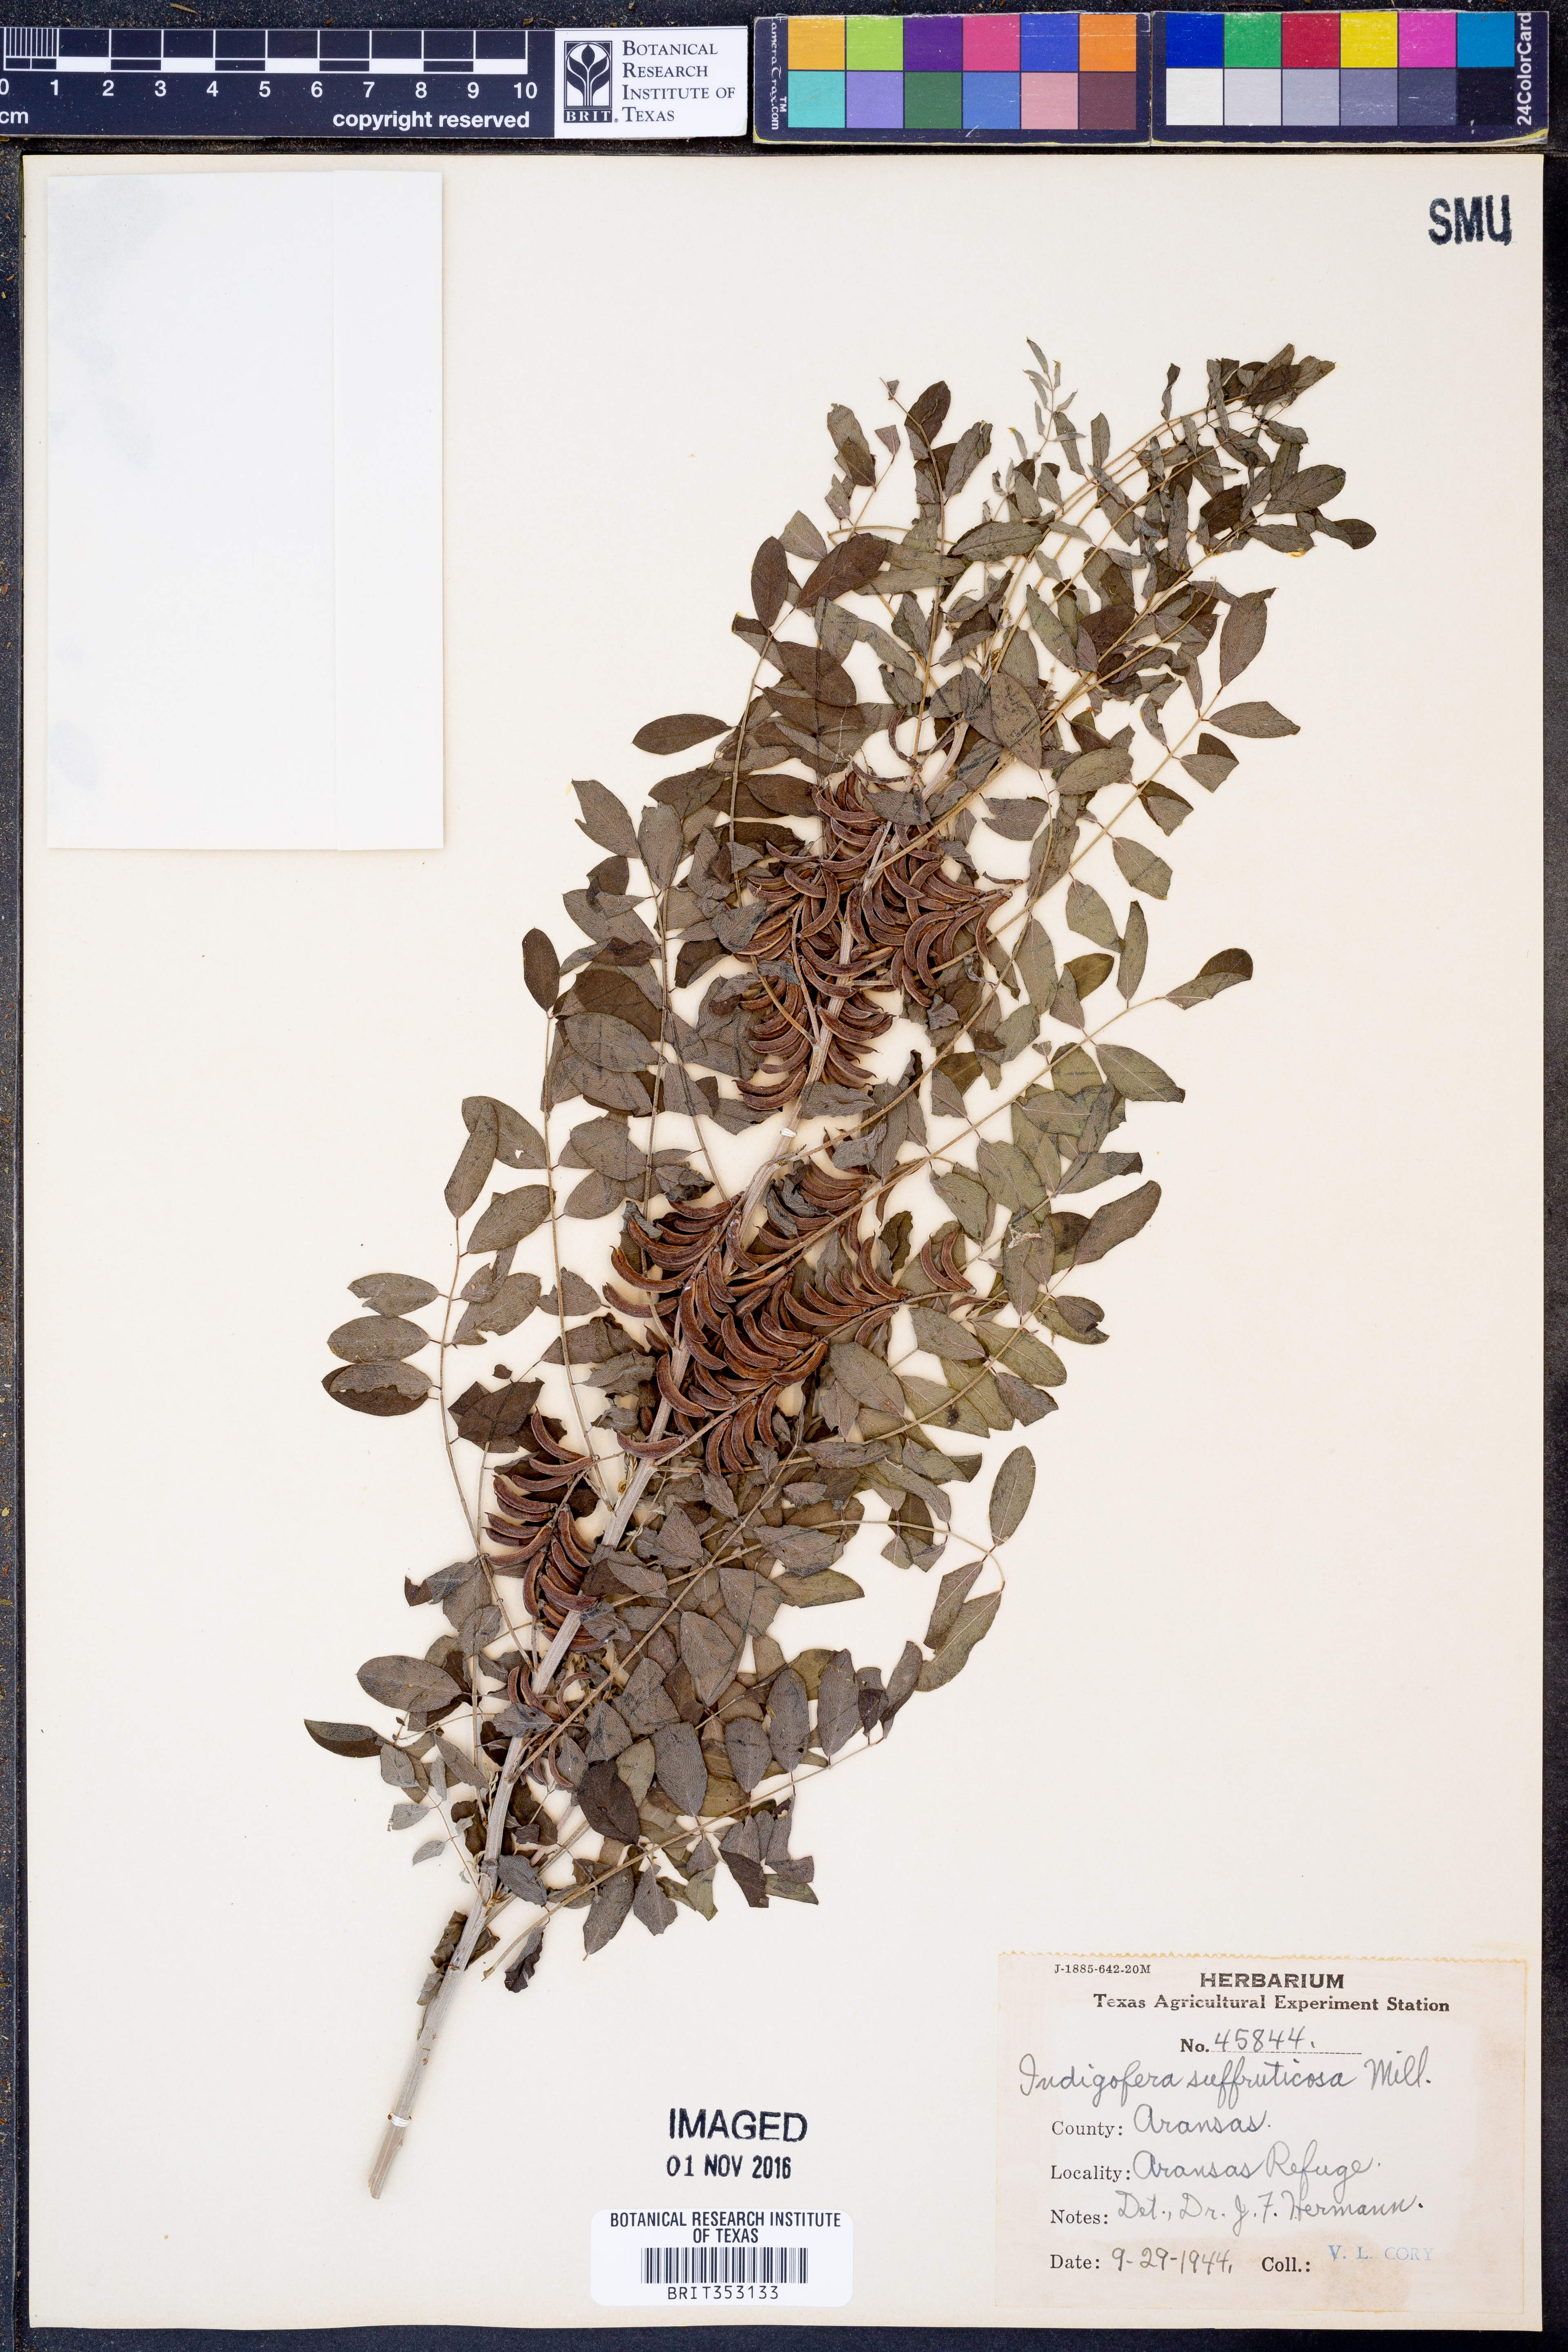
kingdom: Plantae
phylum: Tracheophyta
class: Magnoliopsida
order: Fabales
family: Fabaceae
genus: Indigofera
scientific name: Indigofera suffruticosa
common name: Anil de pasto
